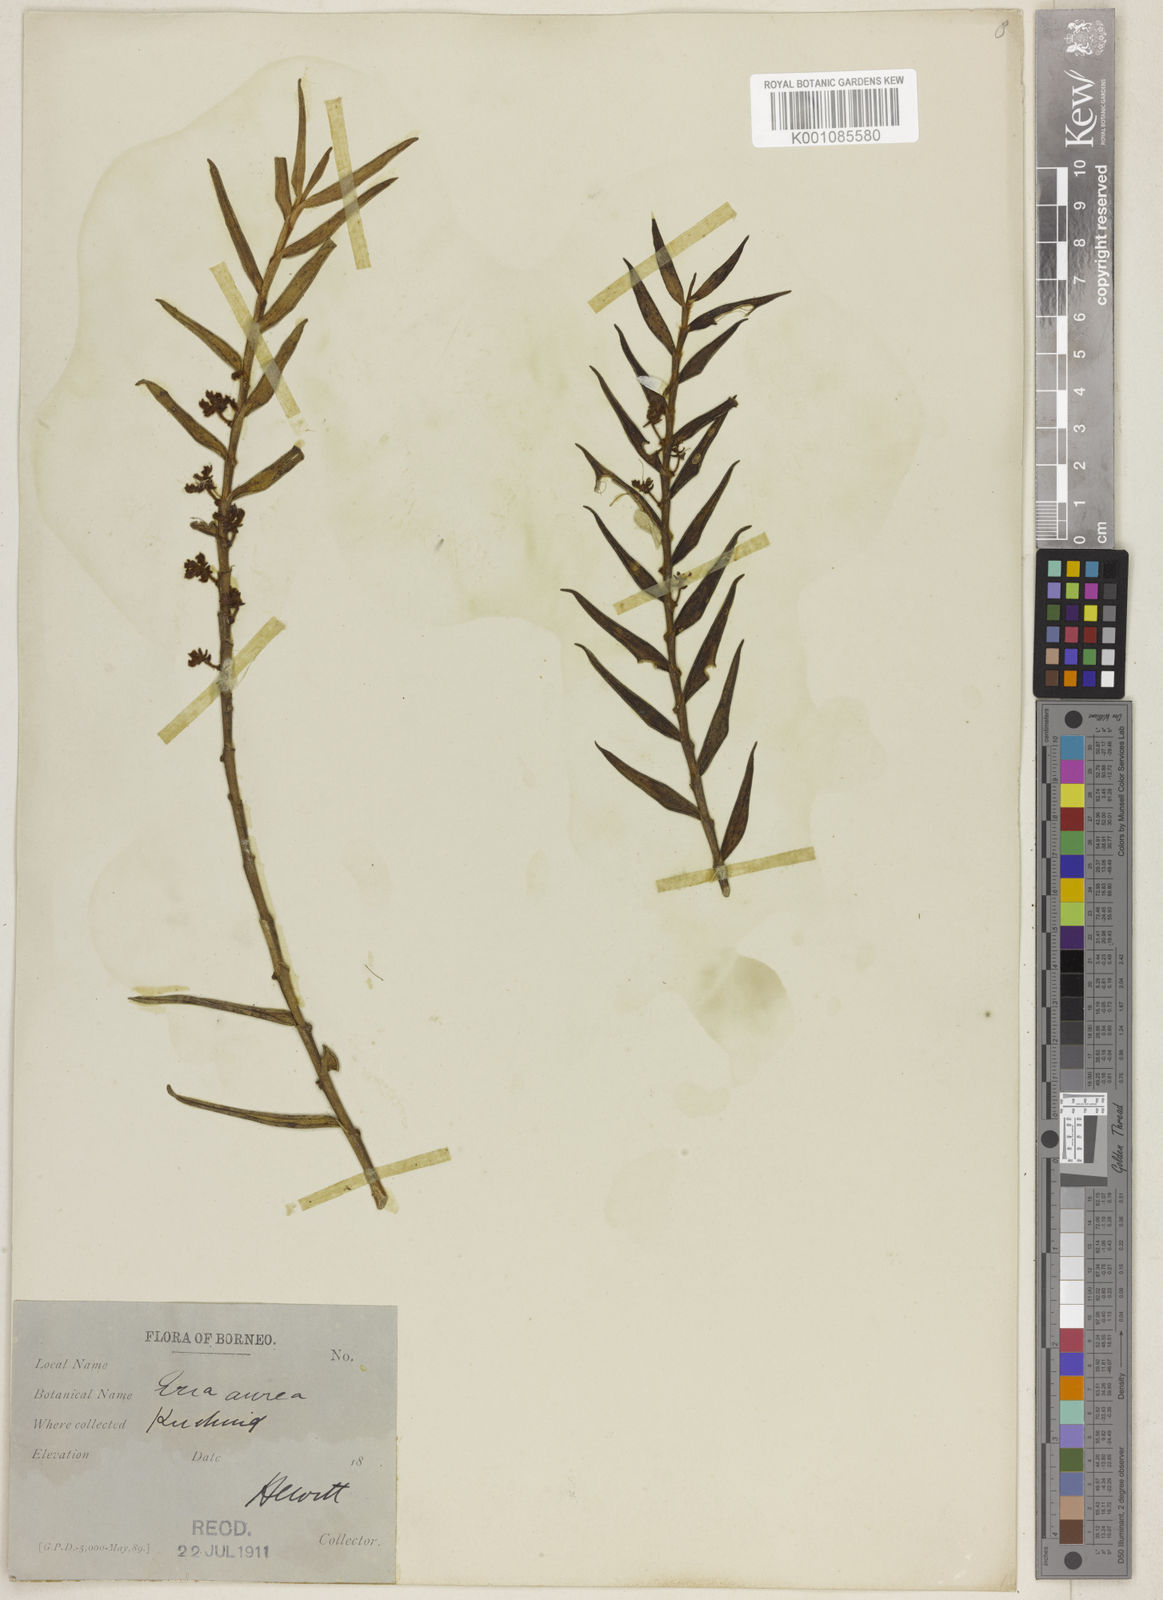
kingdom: Plantae
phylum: Tracheophyta
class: Liliopsida
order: Asparagales
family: Orchidaceae
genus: Trichotosia
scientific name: Trichotosia aurea
